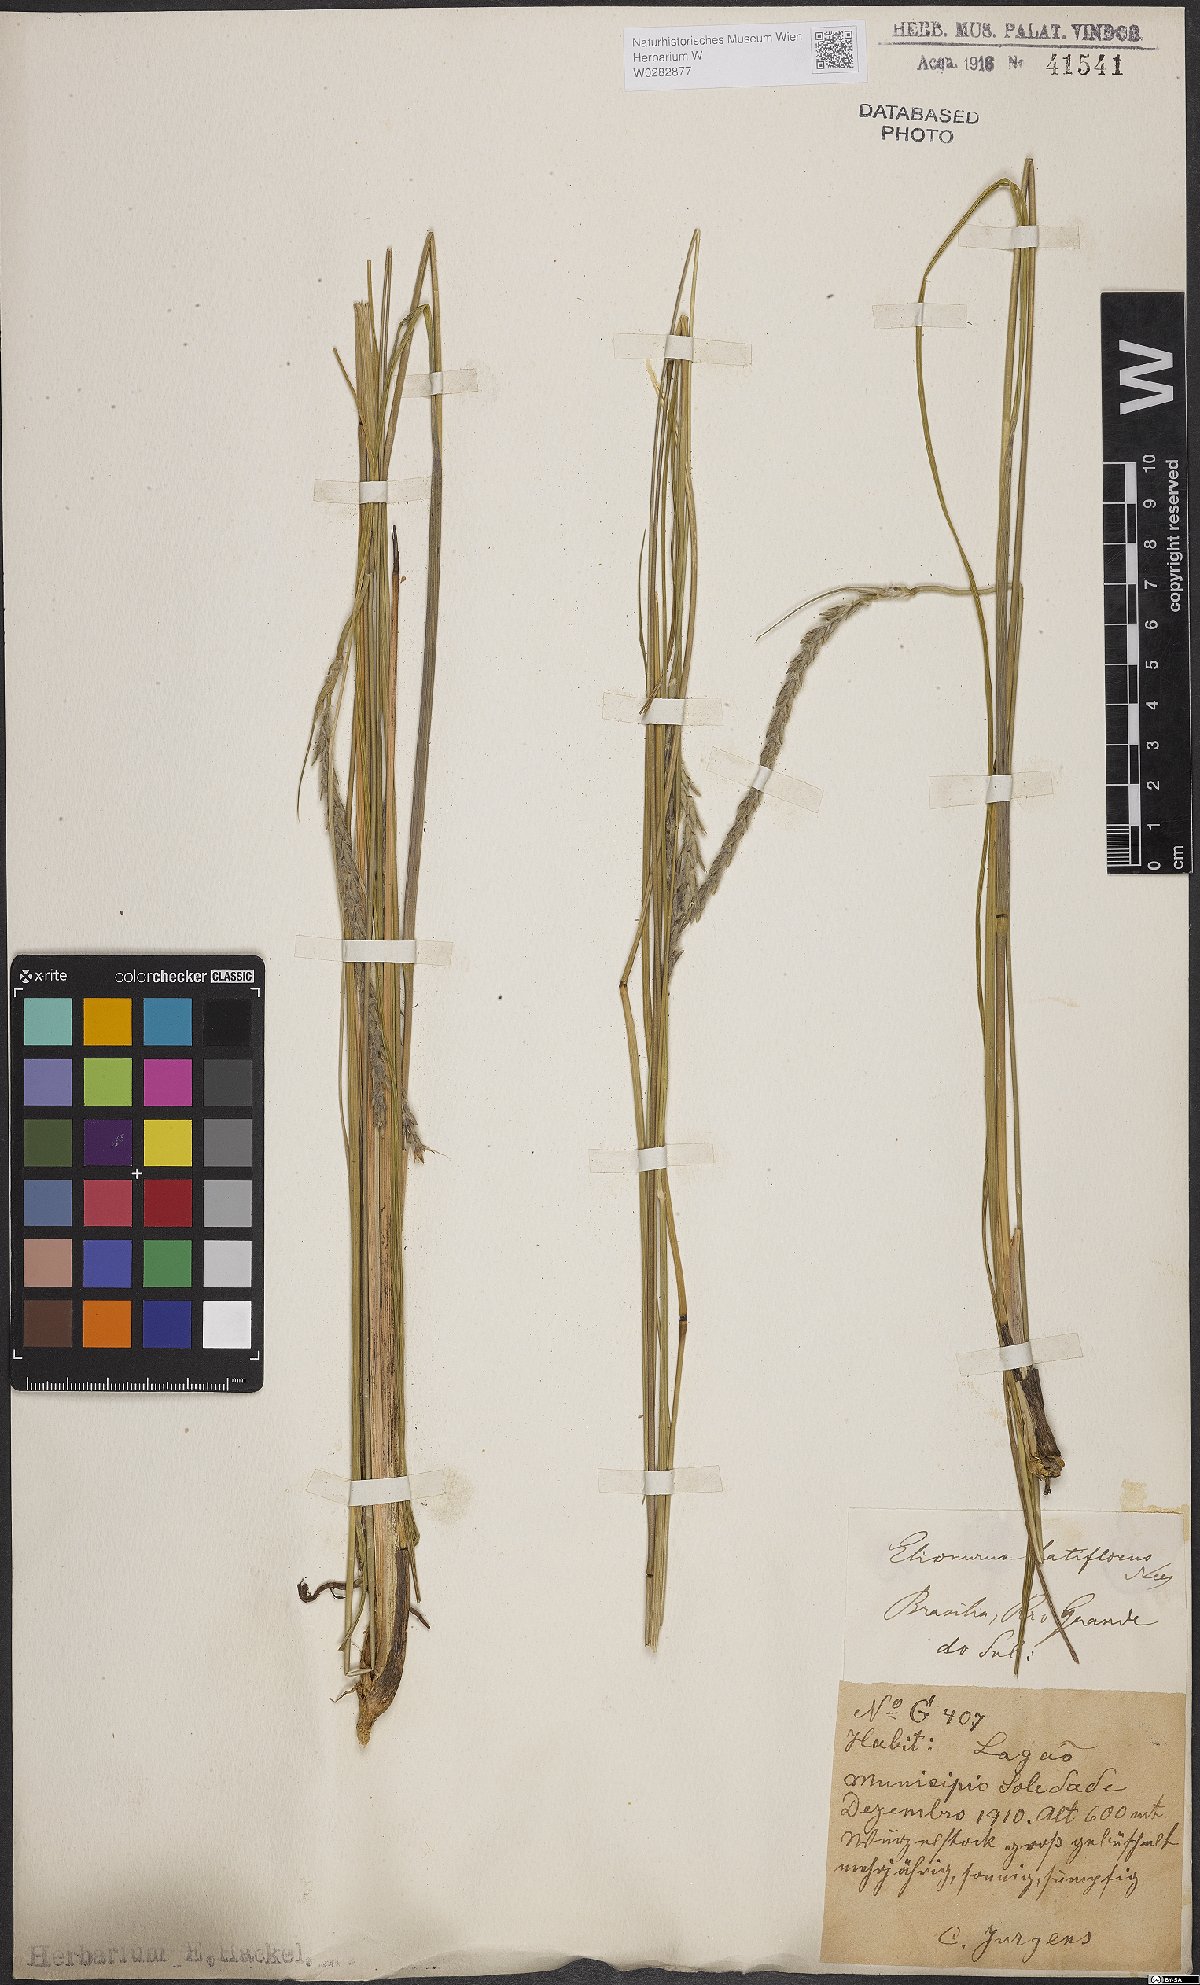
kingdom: Plantae
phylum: Tracheophyta
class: Liliopsida
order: Poales
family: Poaceae
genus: Elionurus
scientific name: Elionurus muticus
